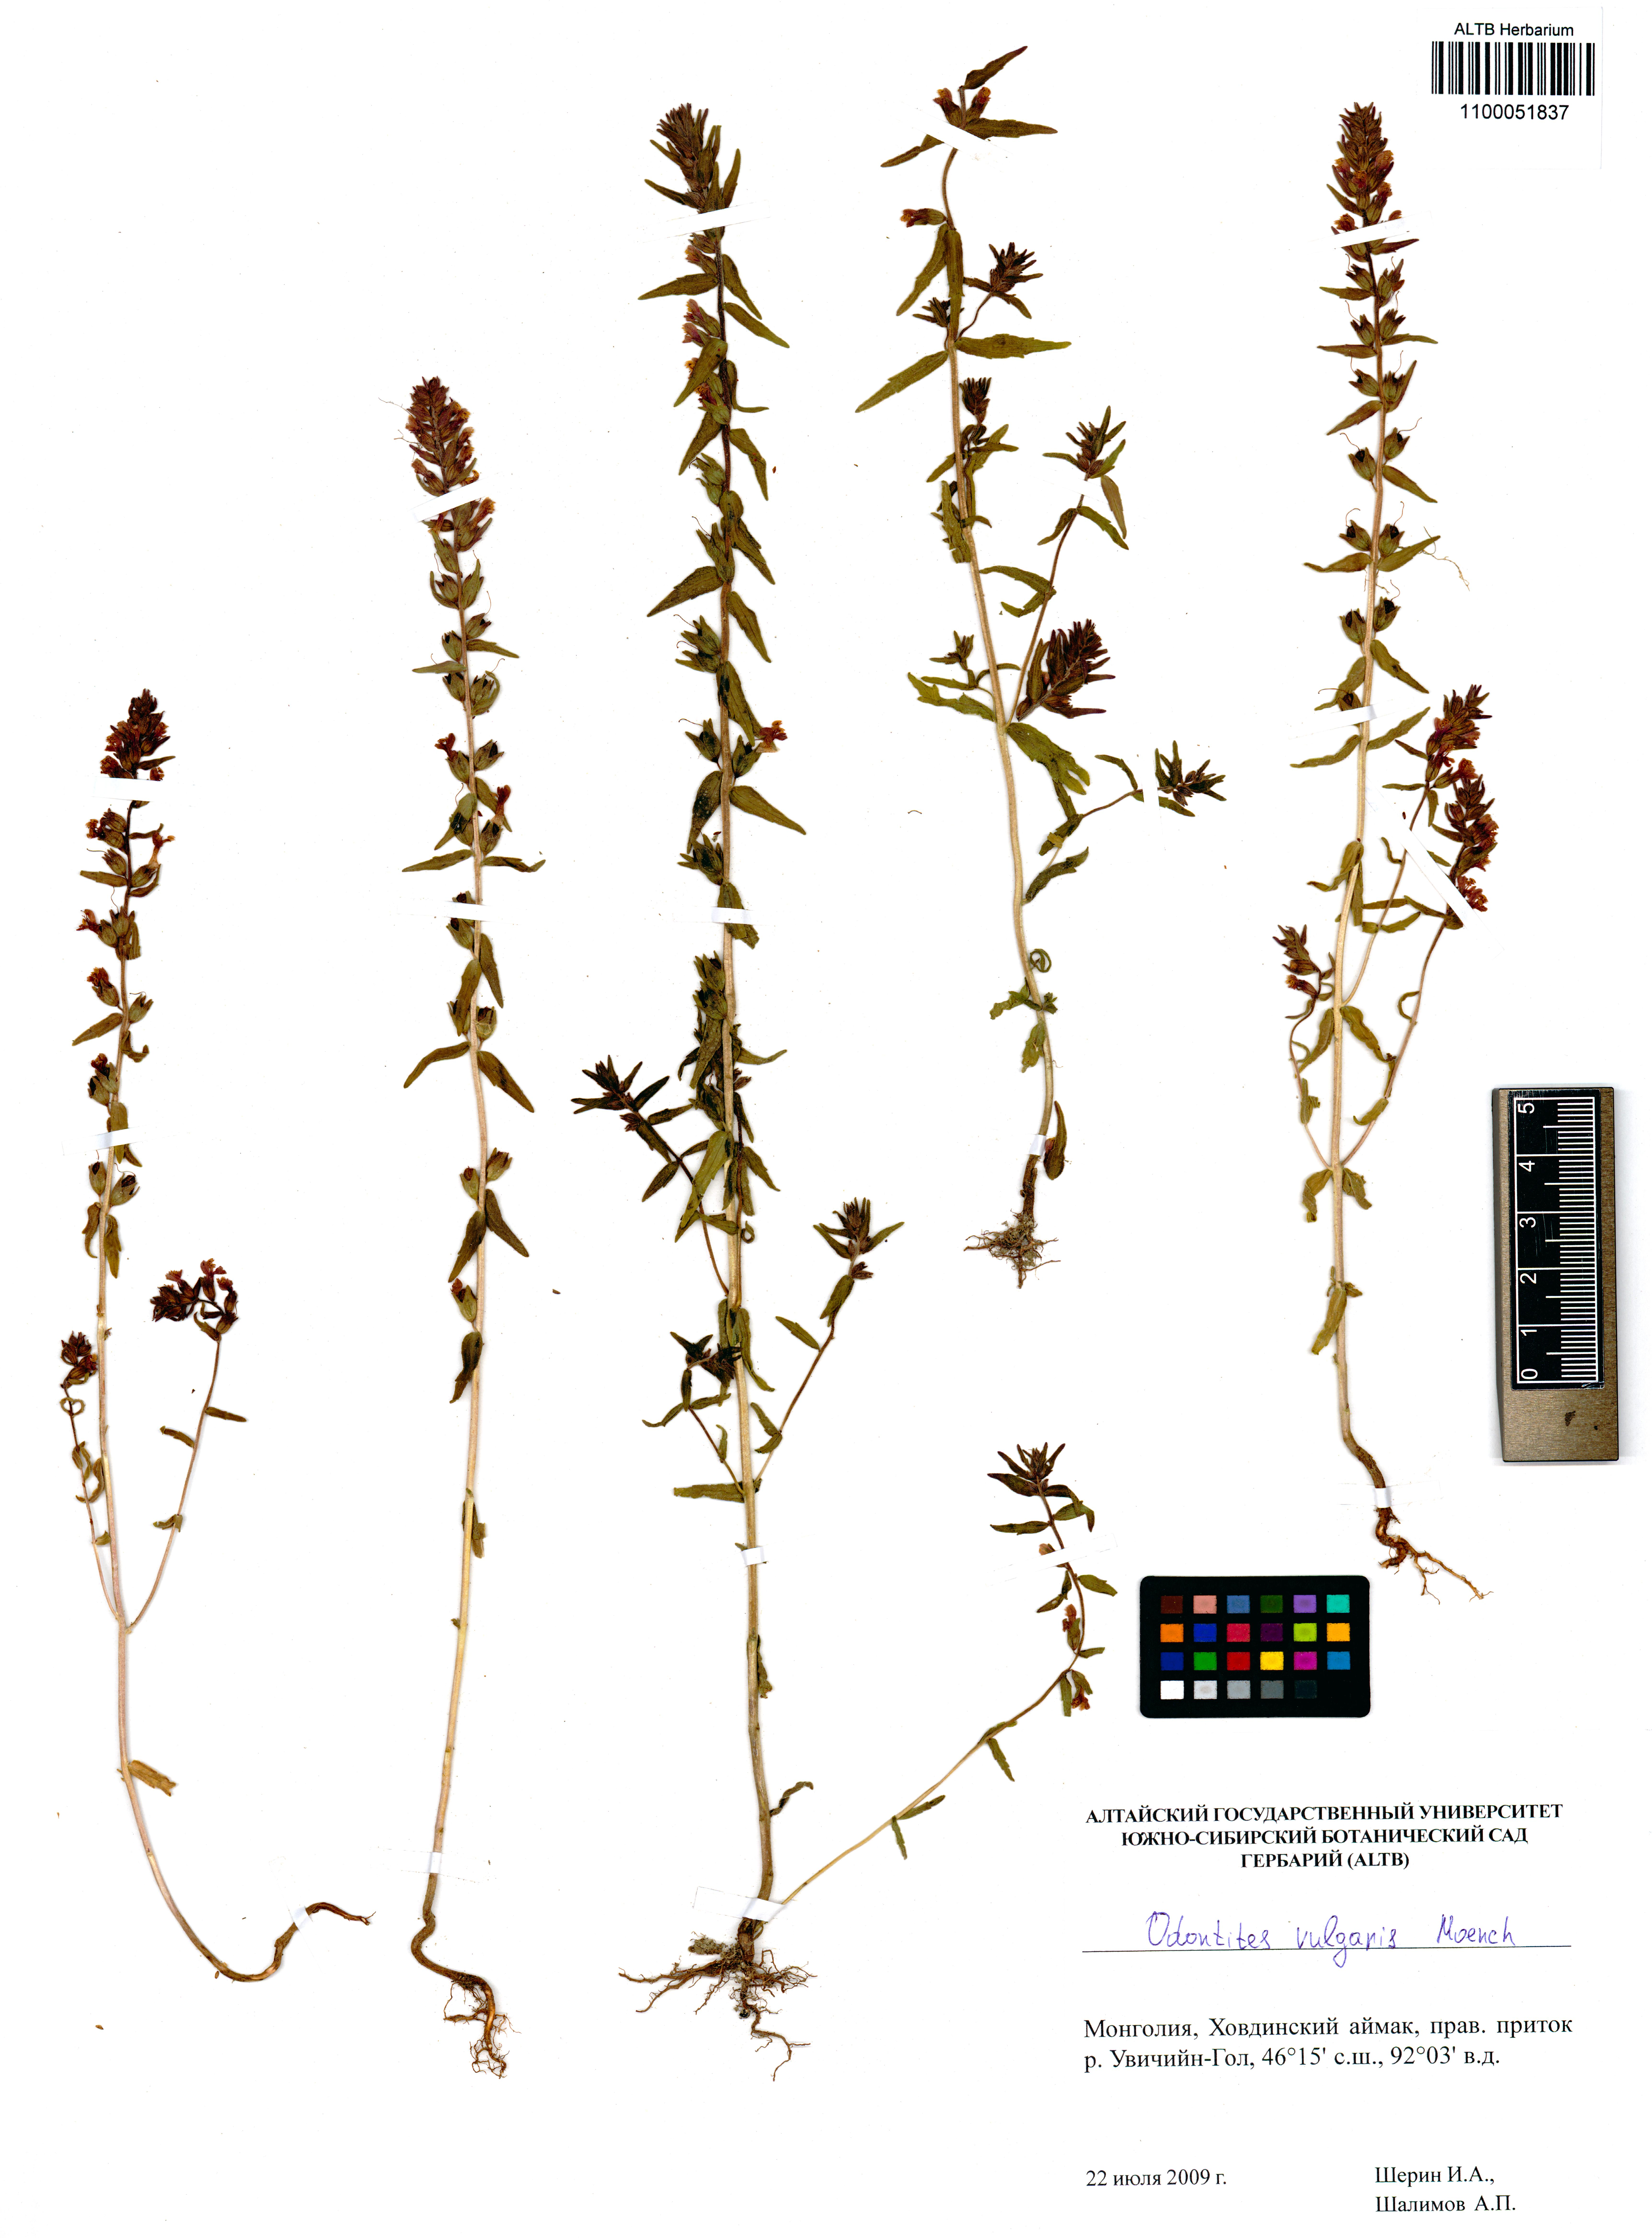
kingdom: Plantae
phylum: Tracheophyta
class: Magnoliopsida
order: Lamiales
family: Orobanchaceae
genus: Odontites
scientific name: Odontites vulgaris
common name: Broomrape
